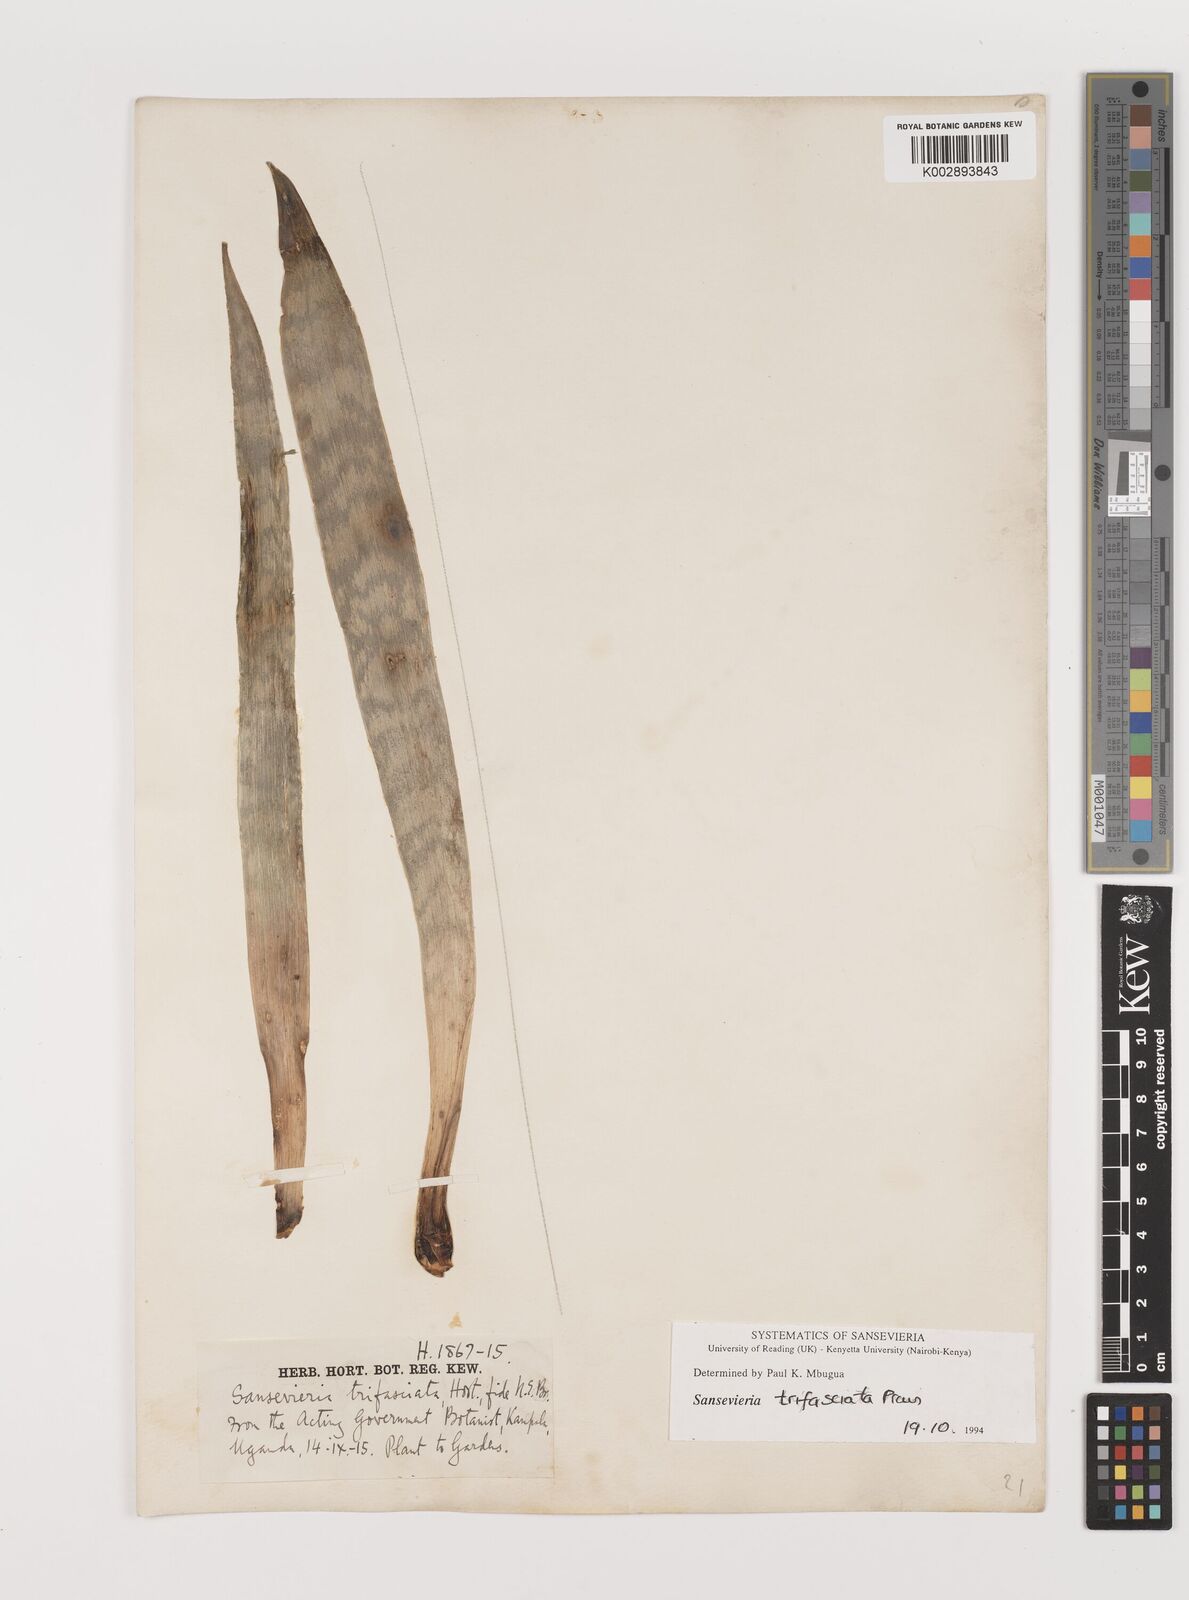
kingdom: Plantae
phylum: Tracheophyta
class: Liliopsida
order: Asparagales
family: Asparagaceae
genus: Dracaena
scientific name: Dracaena trifasciata
